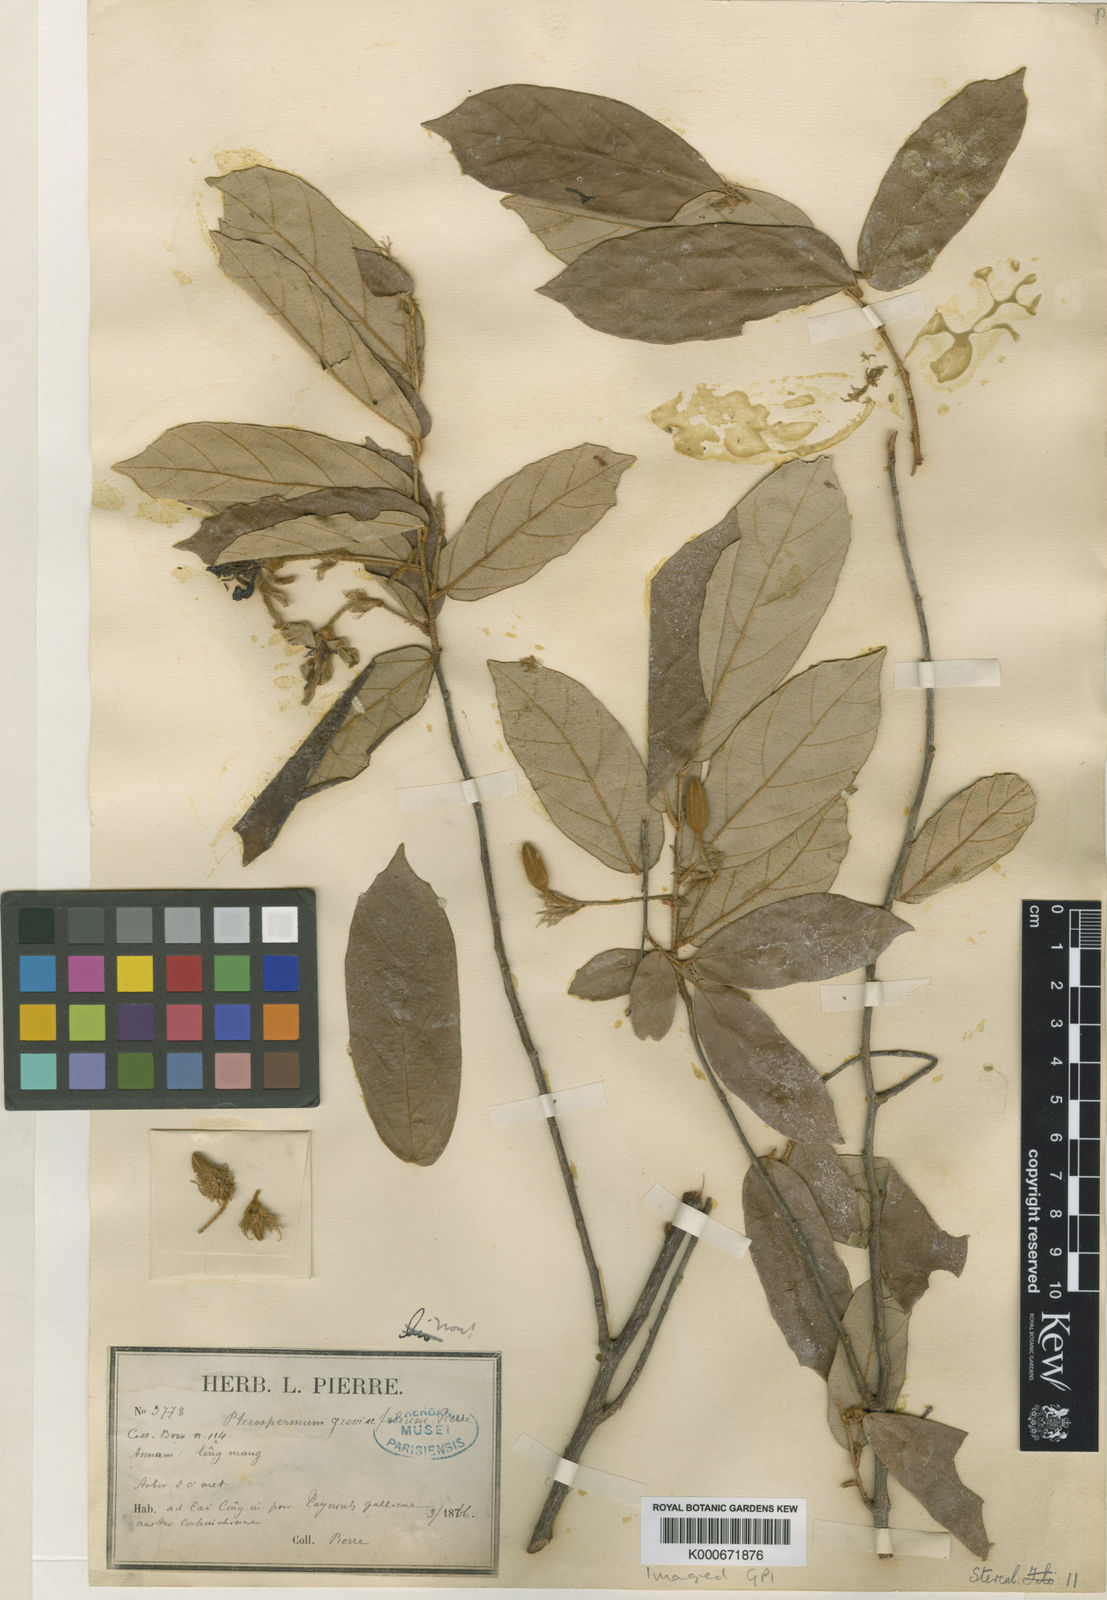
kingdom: Plantae
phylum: Tracheophyta
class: Magnoliopsida
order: Malvales
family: Malvaceae
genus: Pterospermum
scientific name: Pterospermum grewiifolium
